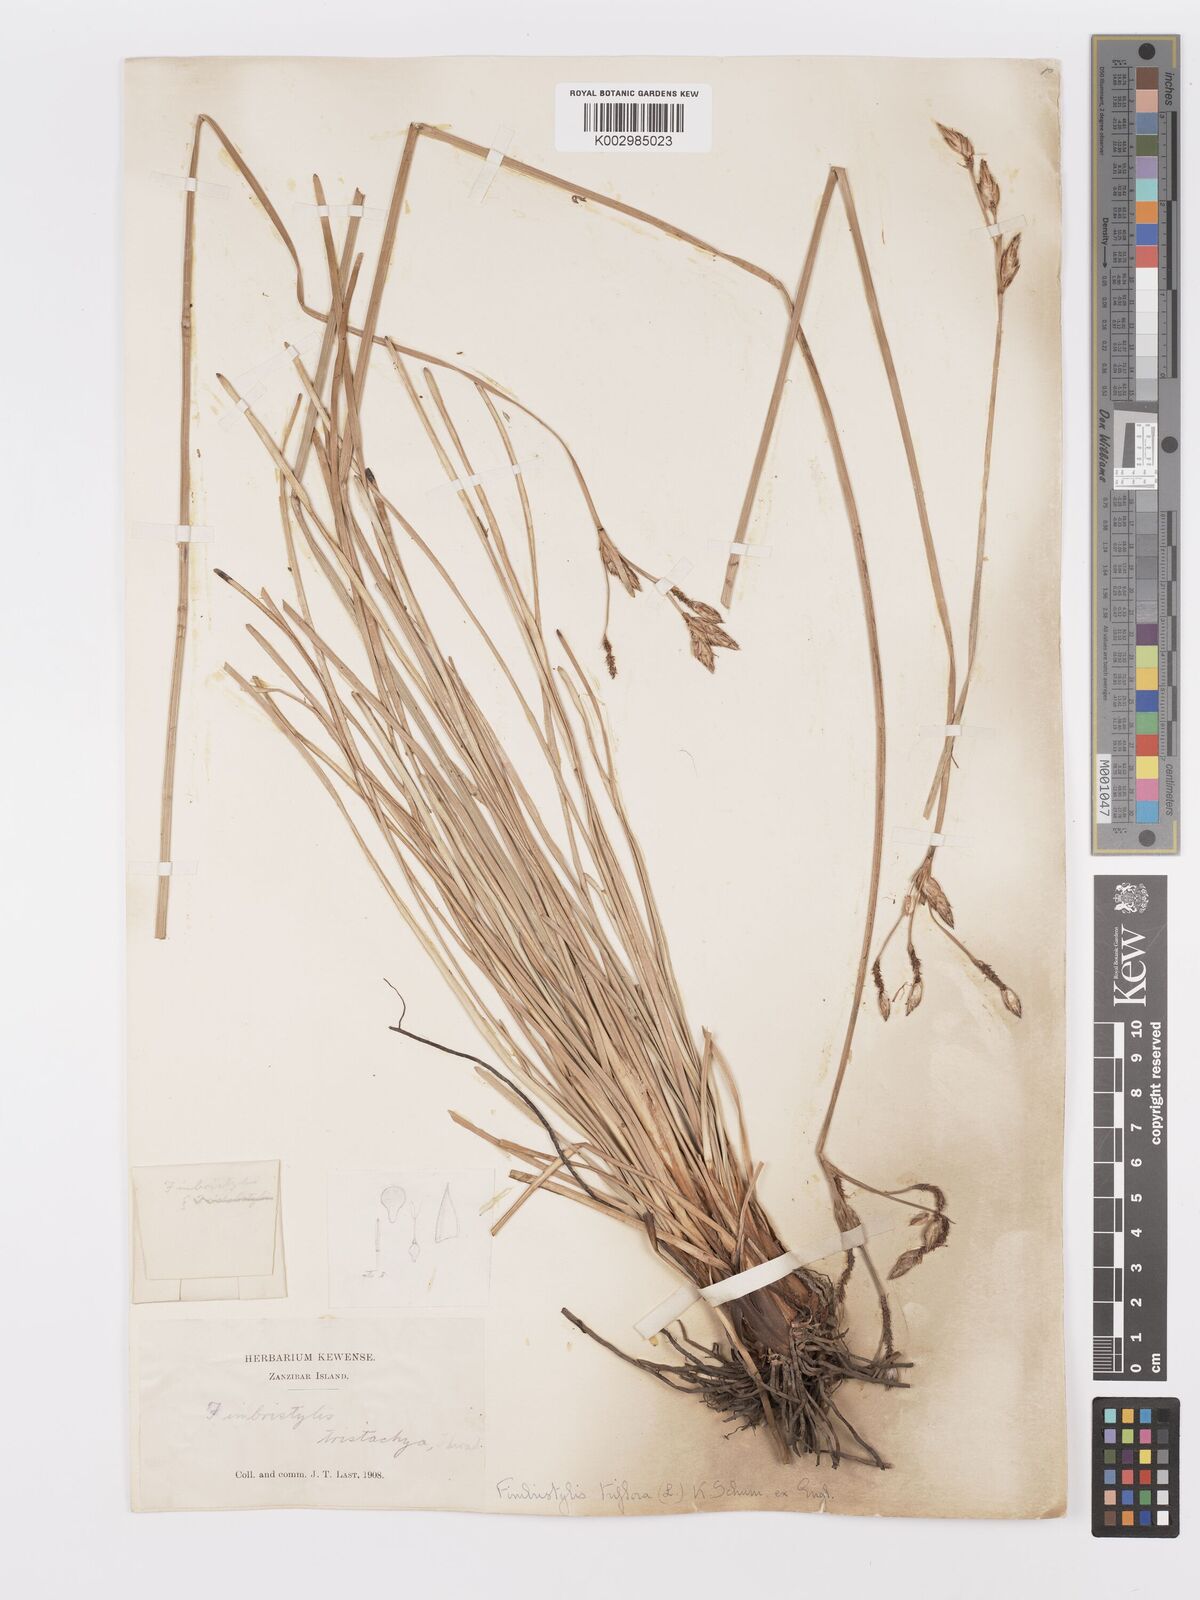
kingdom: Plantae
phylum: Tracheophyta
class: Liliopsida
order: Poales
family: Cyperaceae
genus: Abildgaardia
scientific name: Abildgaardia triflora
